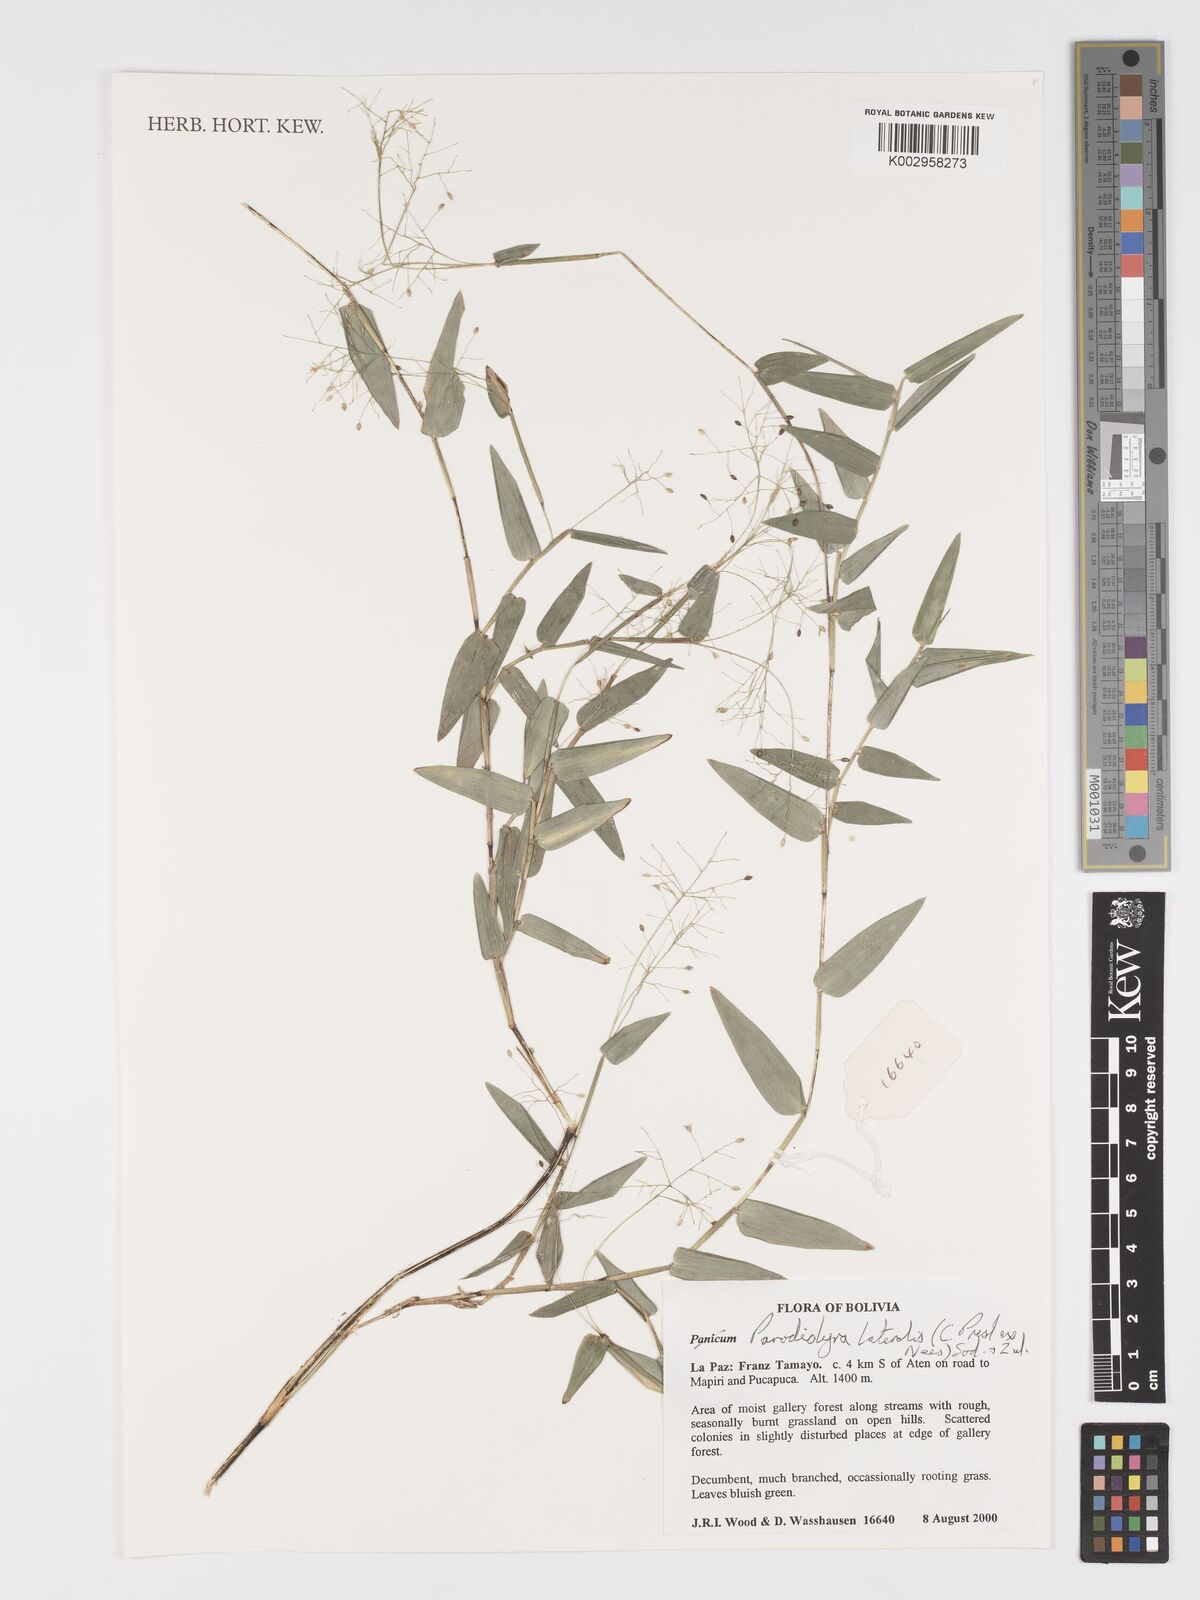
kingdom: Plantae
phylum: Tracheophyta
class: Liliopsida
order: Poales
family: Poaceae
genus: Parodiolyra
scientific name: Parodiolyra lateralis
